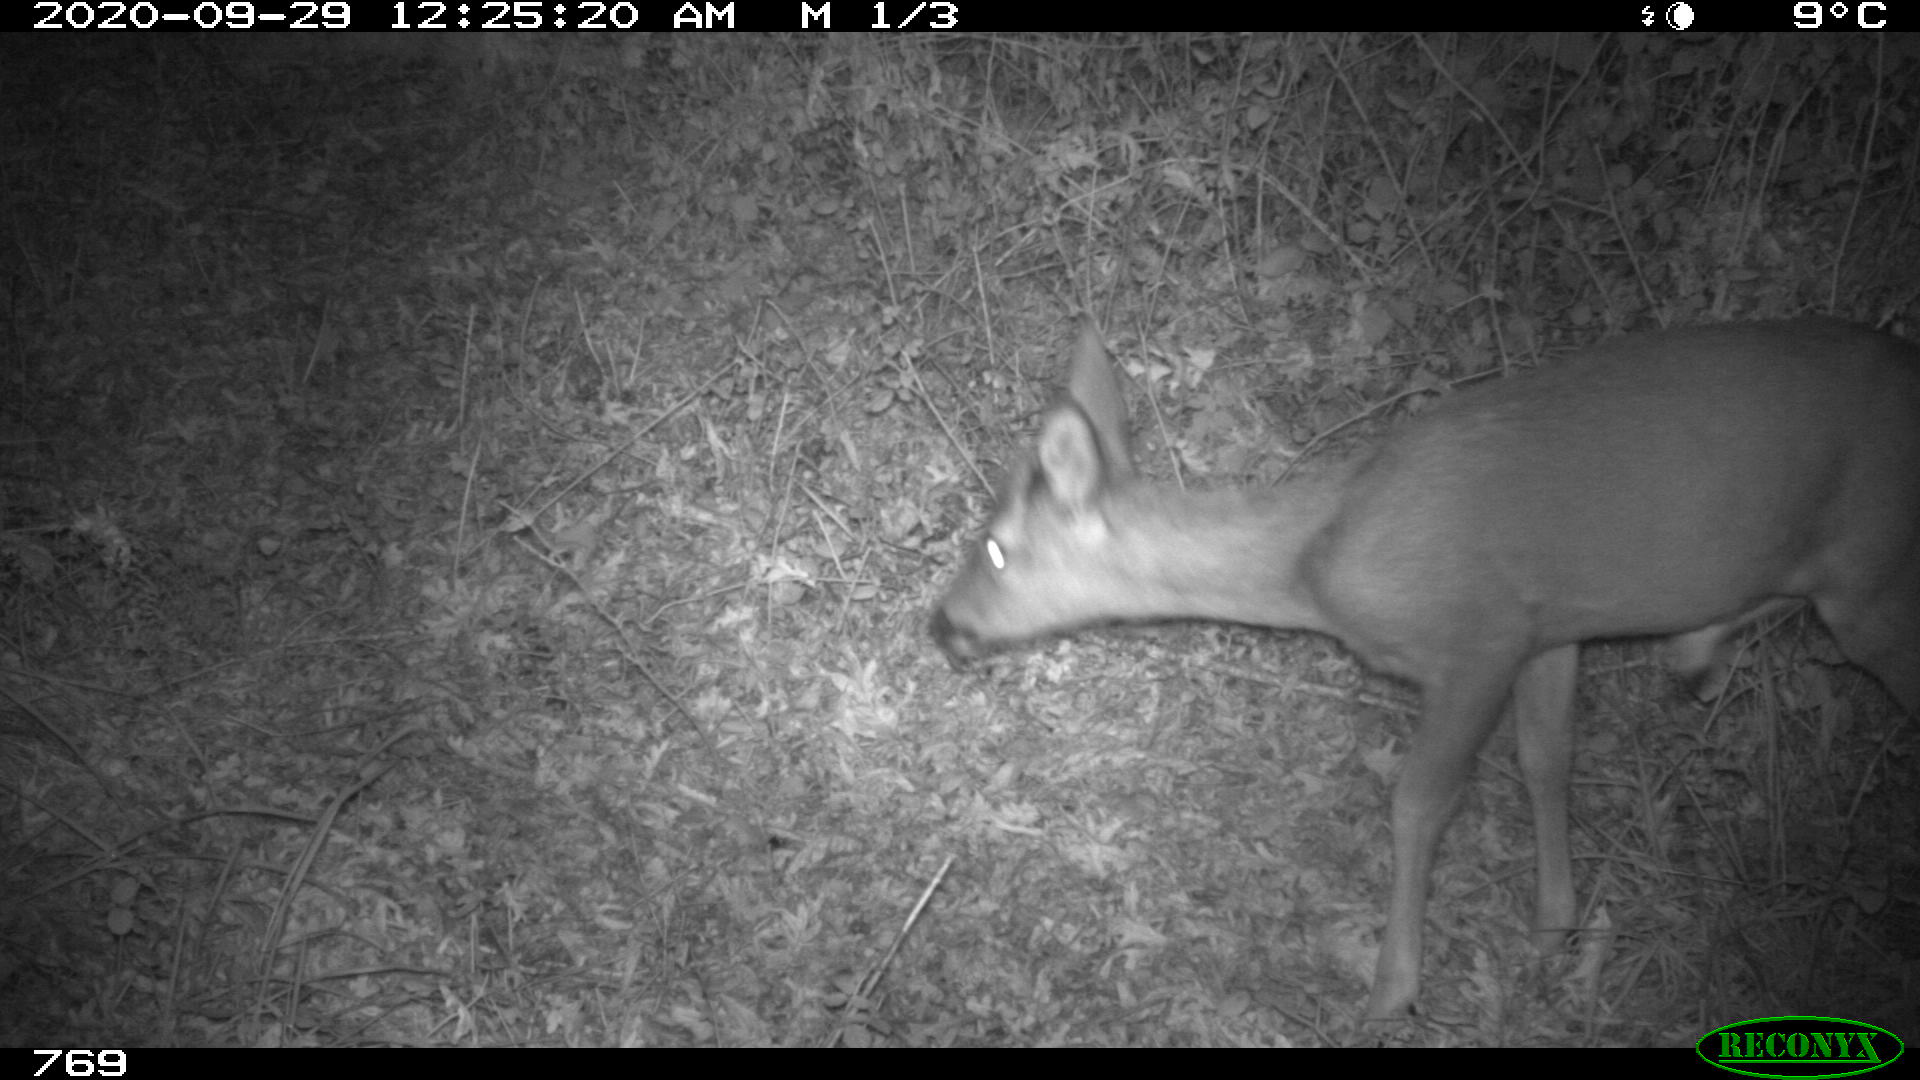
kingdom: Animalia
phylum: Chordata
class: Mammalia
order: Artiodactyla
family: Cervidae
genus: Capreolus
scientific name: Capreolus capreolus
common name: Western roe deer
